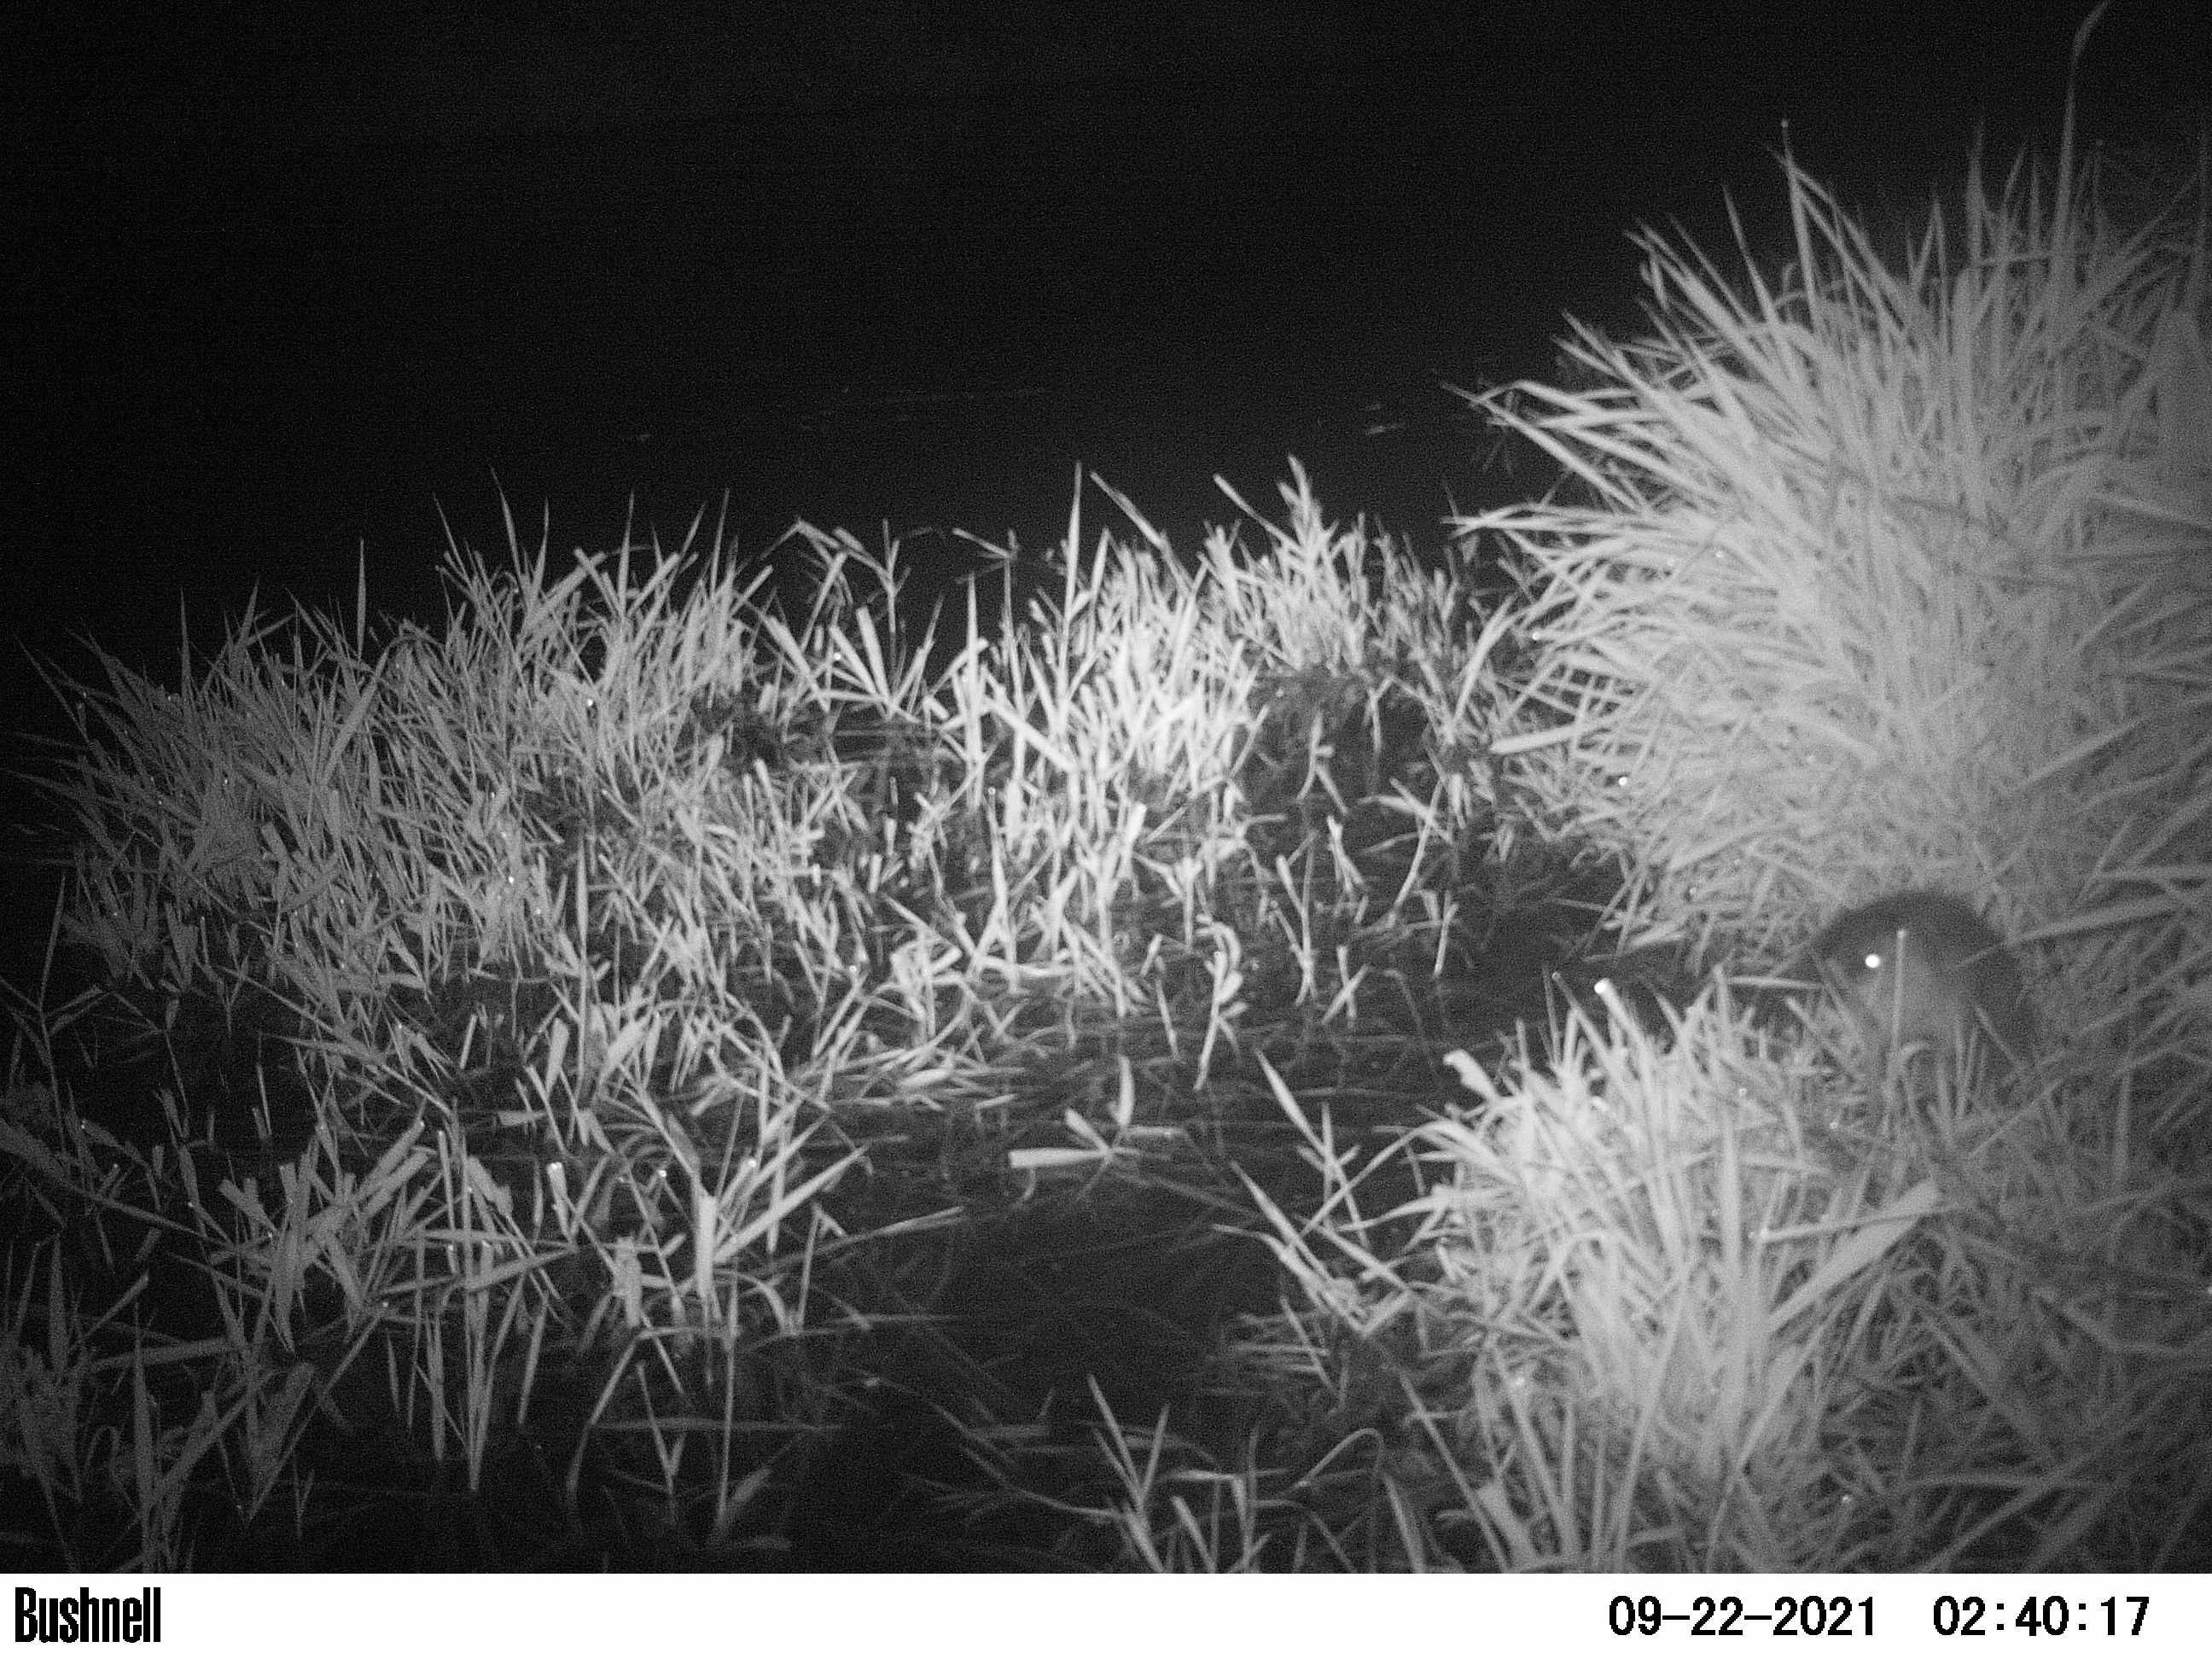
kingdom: Animalia
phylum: Chordata
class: Mammalia
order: Rodentia
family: Cricetidae
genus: Ondatra
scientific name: Ondatra zibethicus
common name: Muskrat
